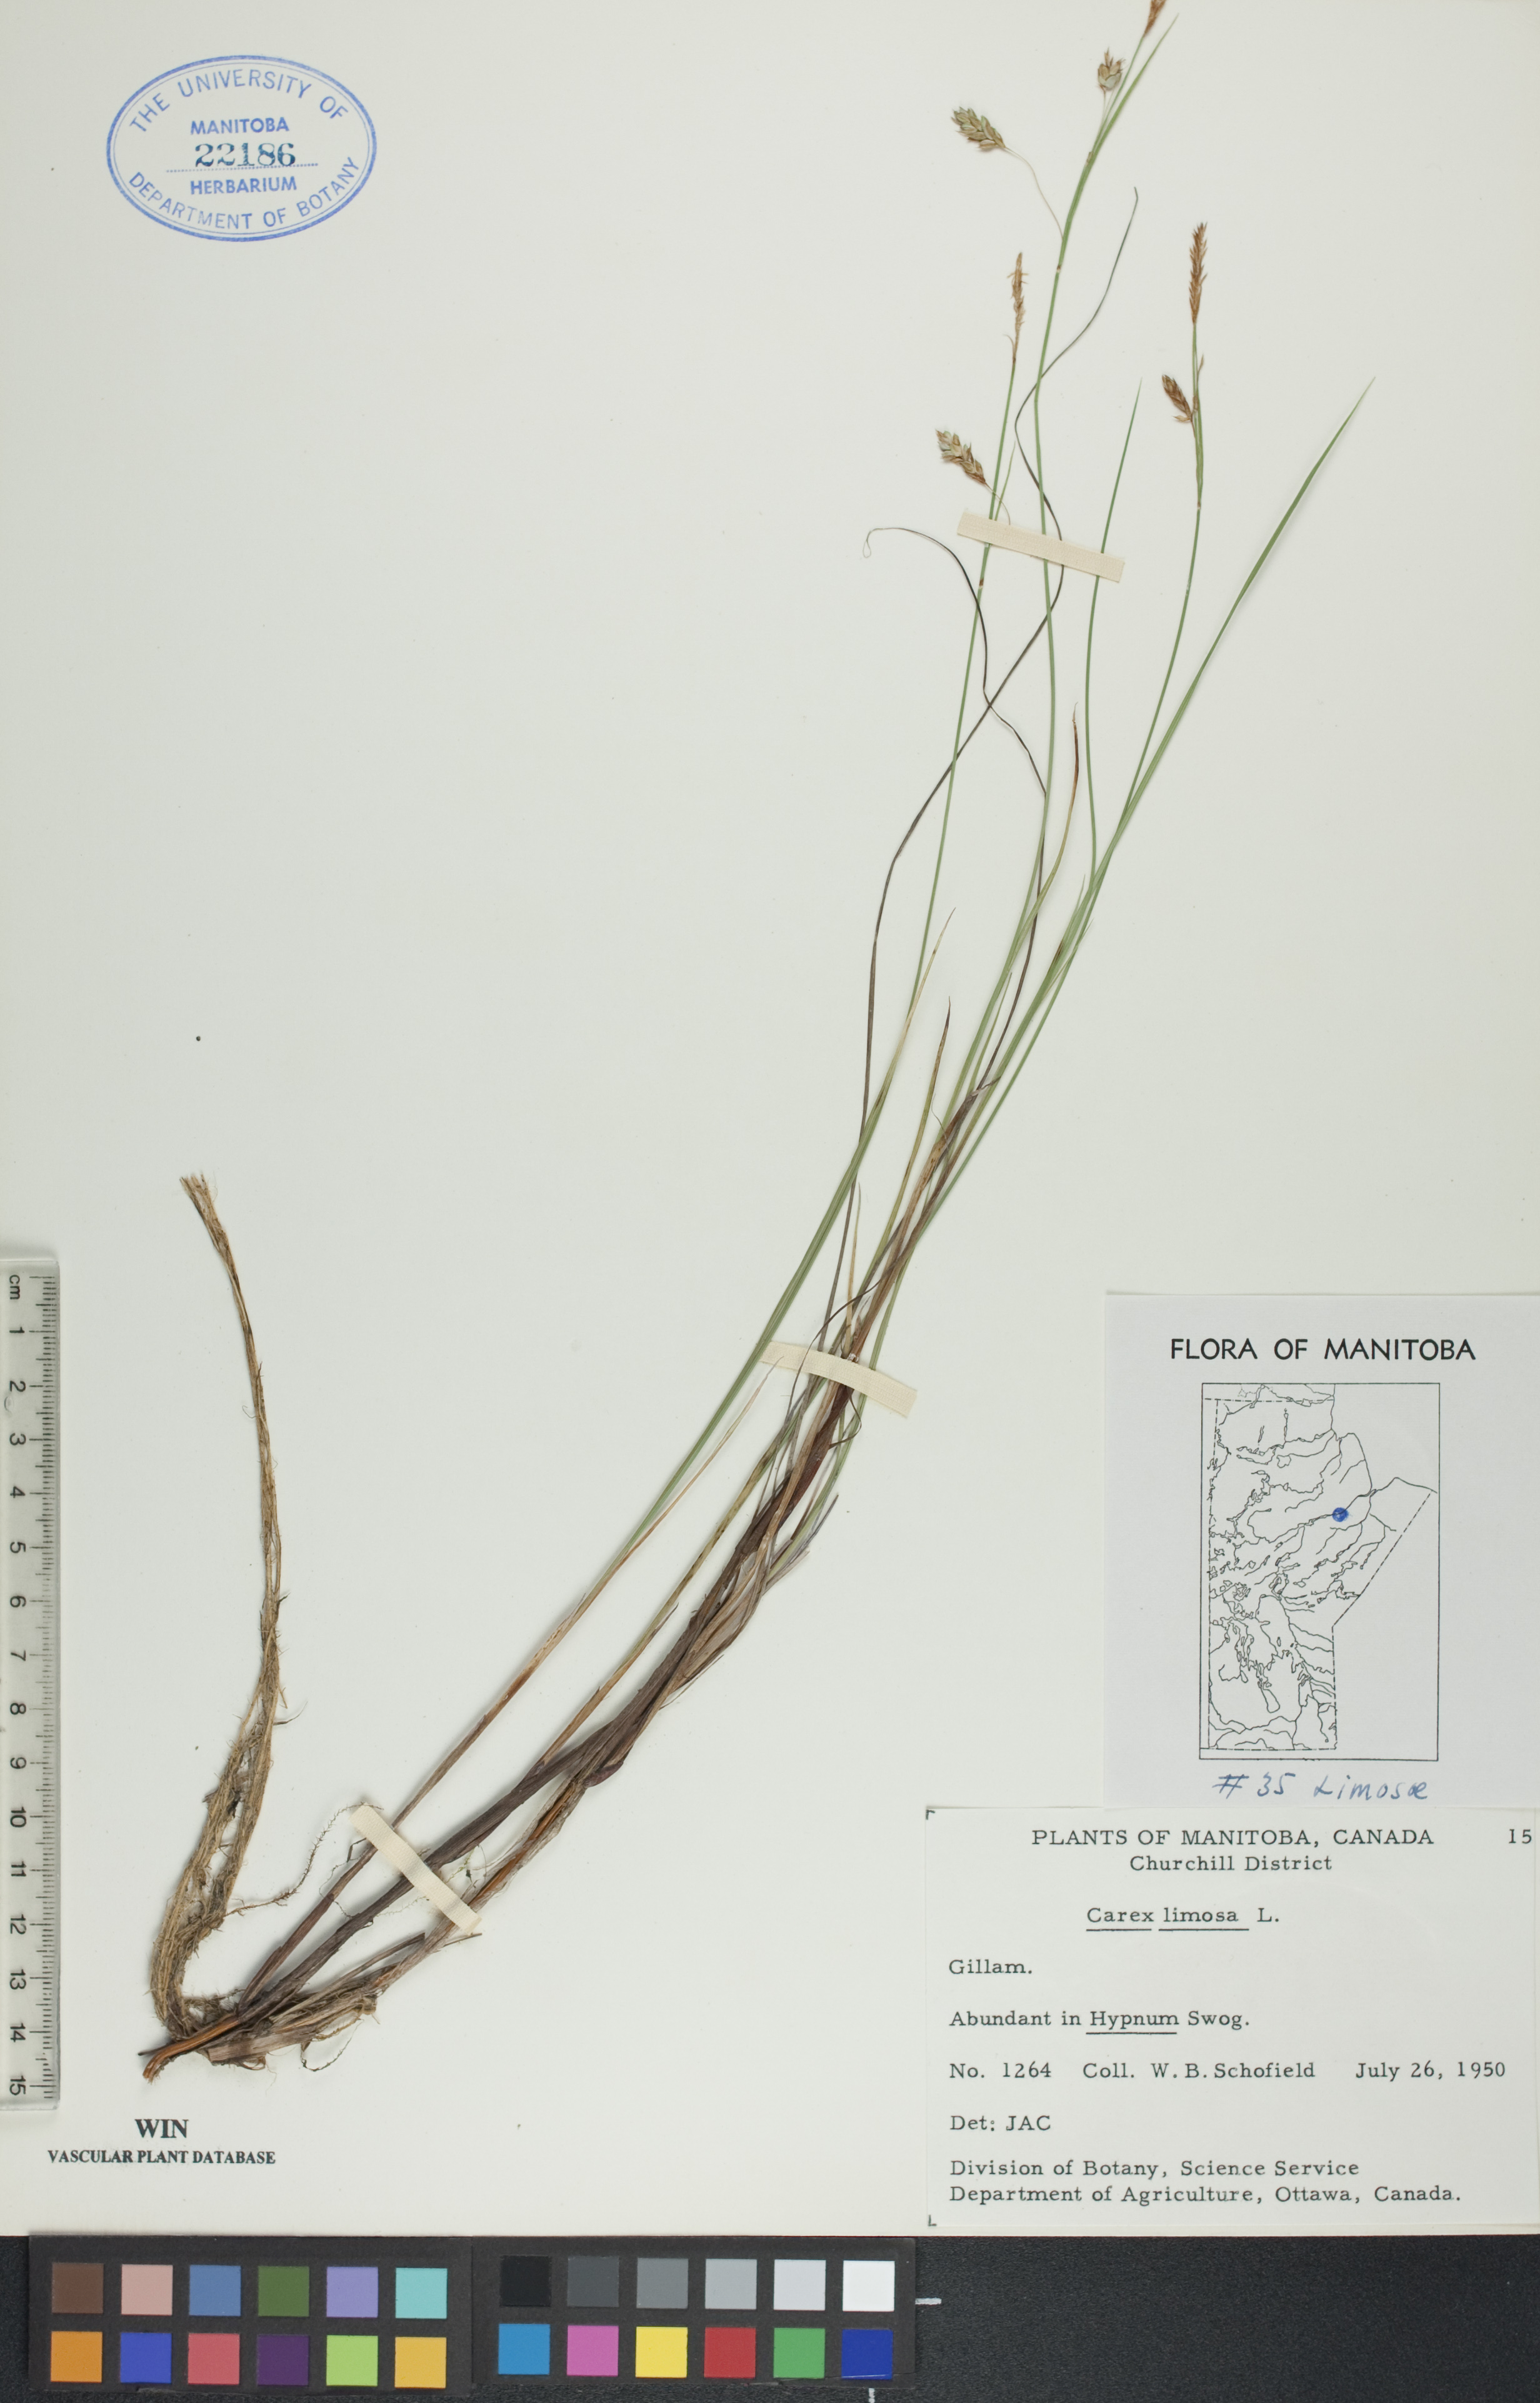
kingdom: Plantae
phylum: Tracheophyta
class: Liliopsida
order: Poales
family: Cyperaceae
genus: Carex
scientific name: Carex limosa
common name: Bog sedge
